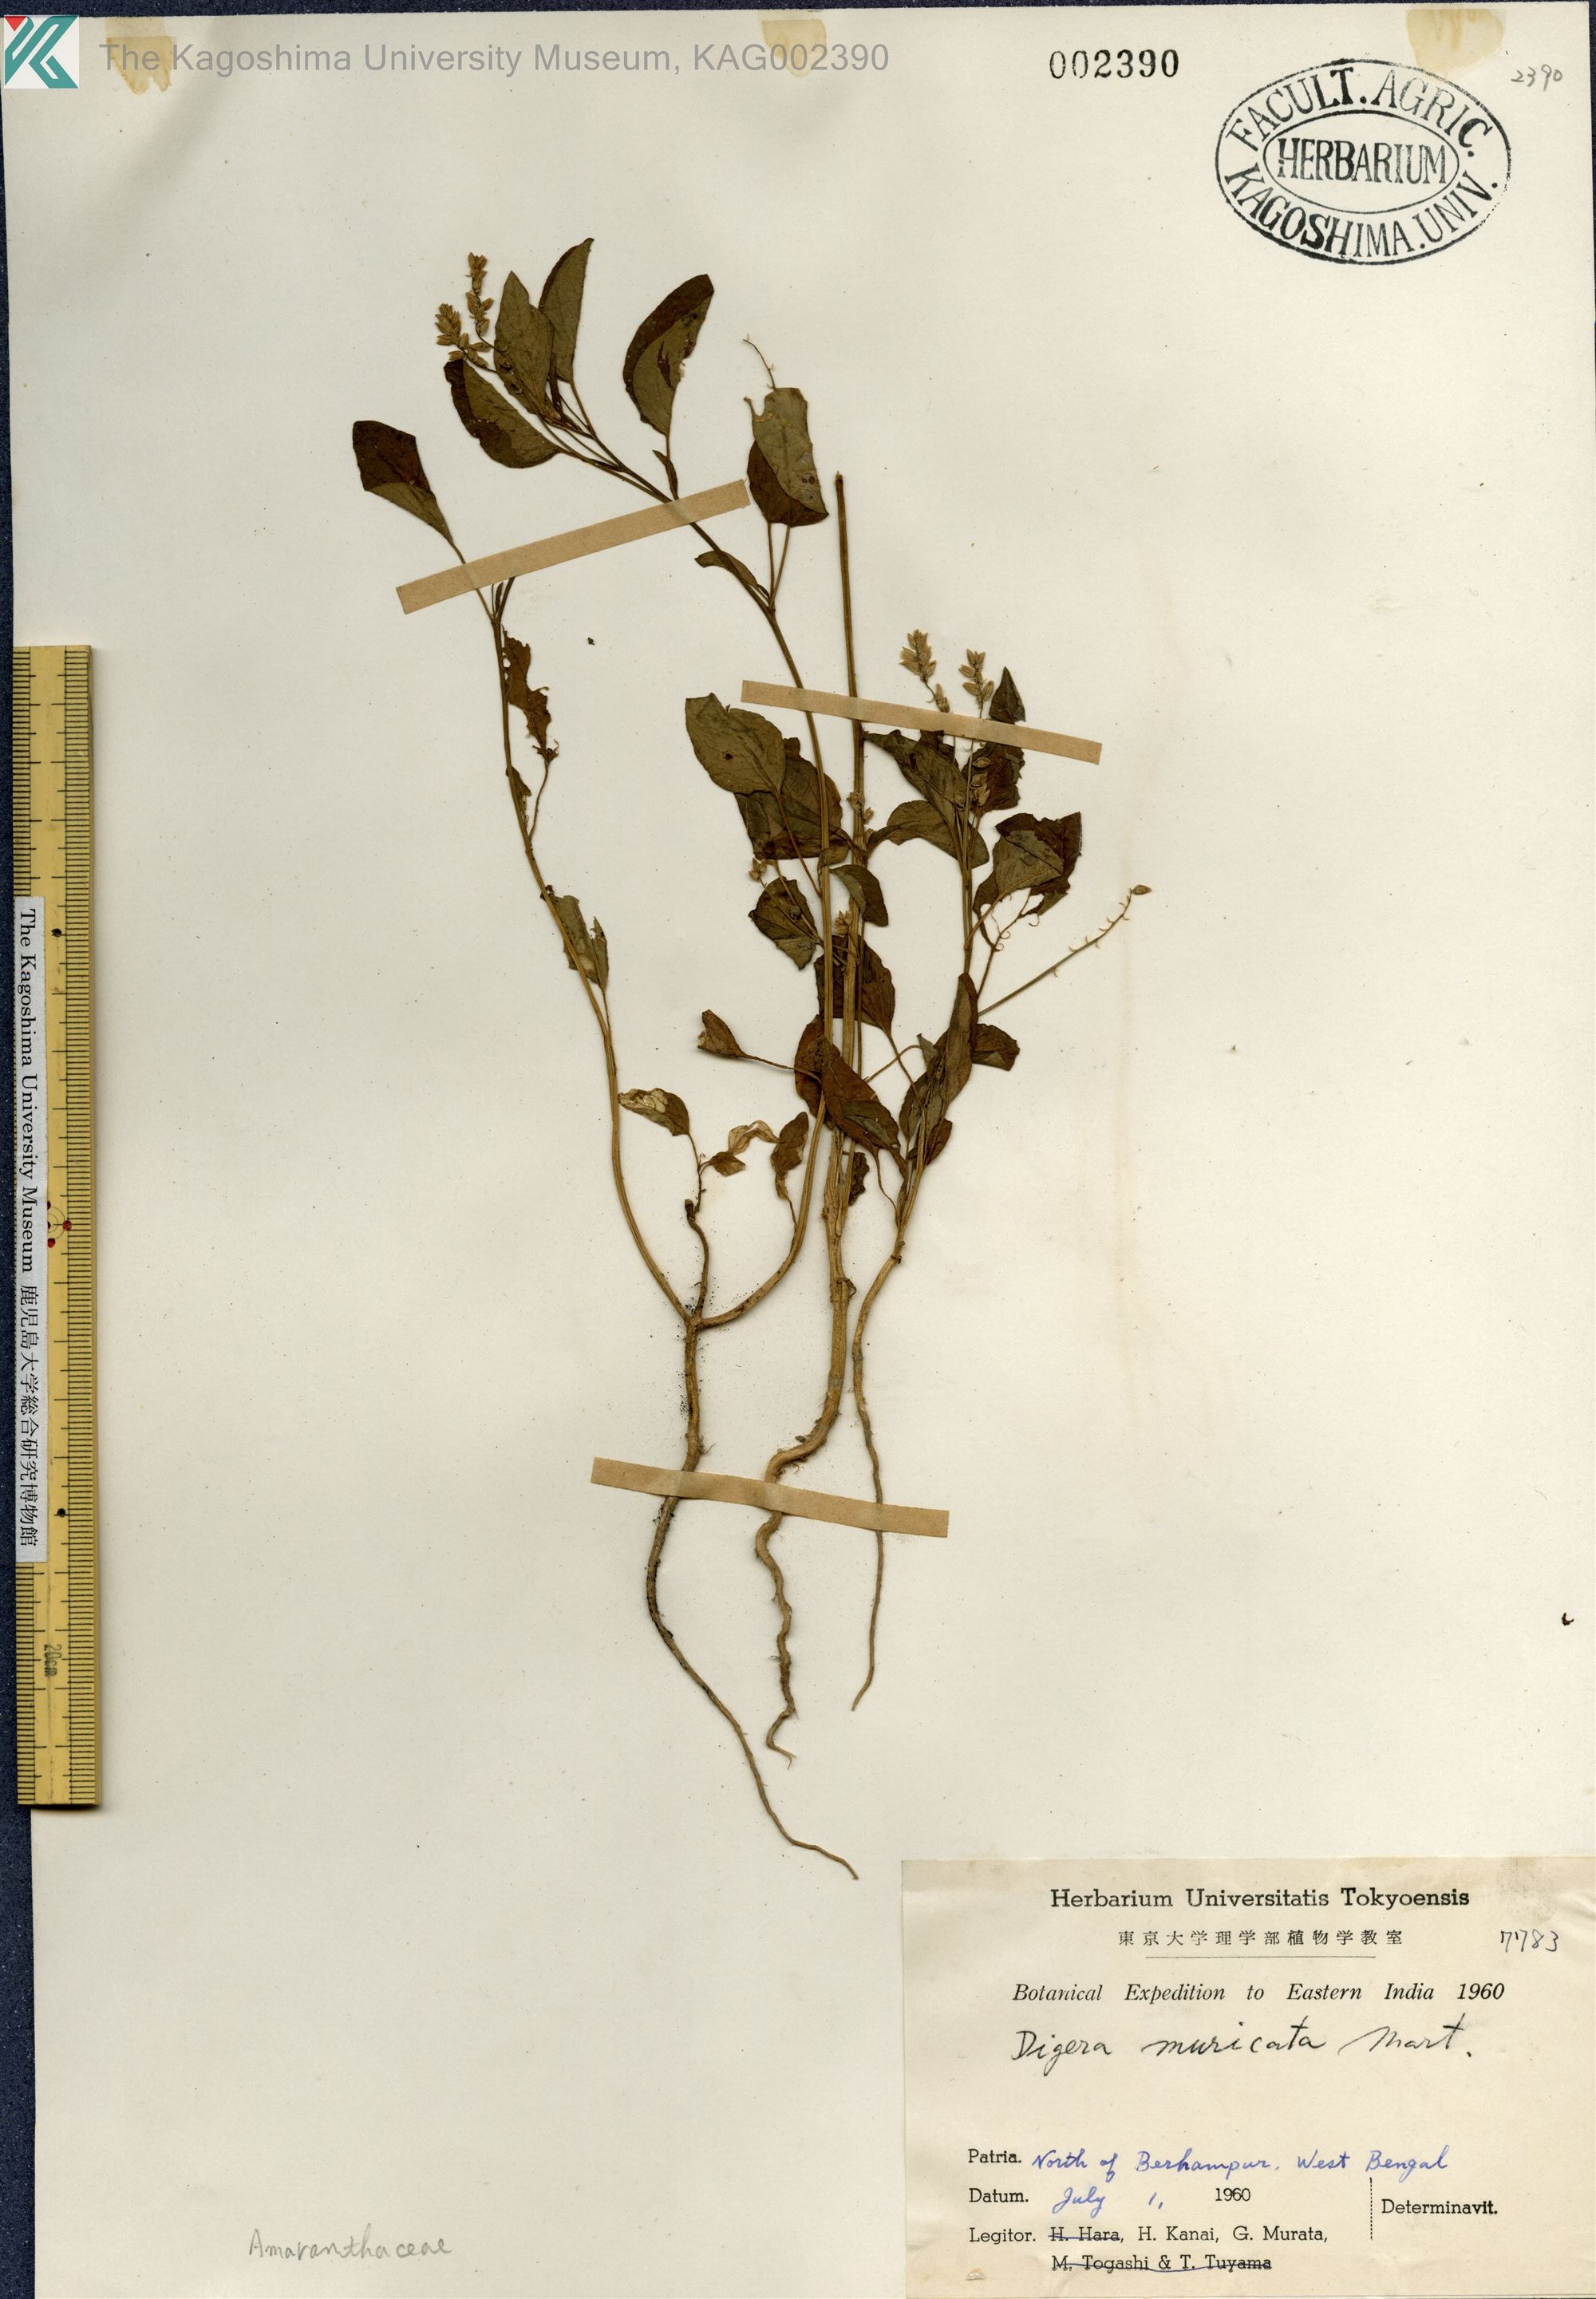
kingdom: Plantae
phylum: Tracheophyta
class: Magnoliopsida
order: Caryophyllales
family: Amaranthaceae
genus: Digera
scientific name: Digera muricata
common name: False amaranth
